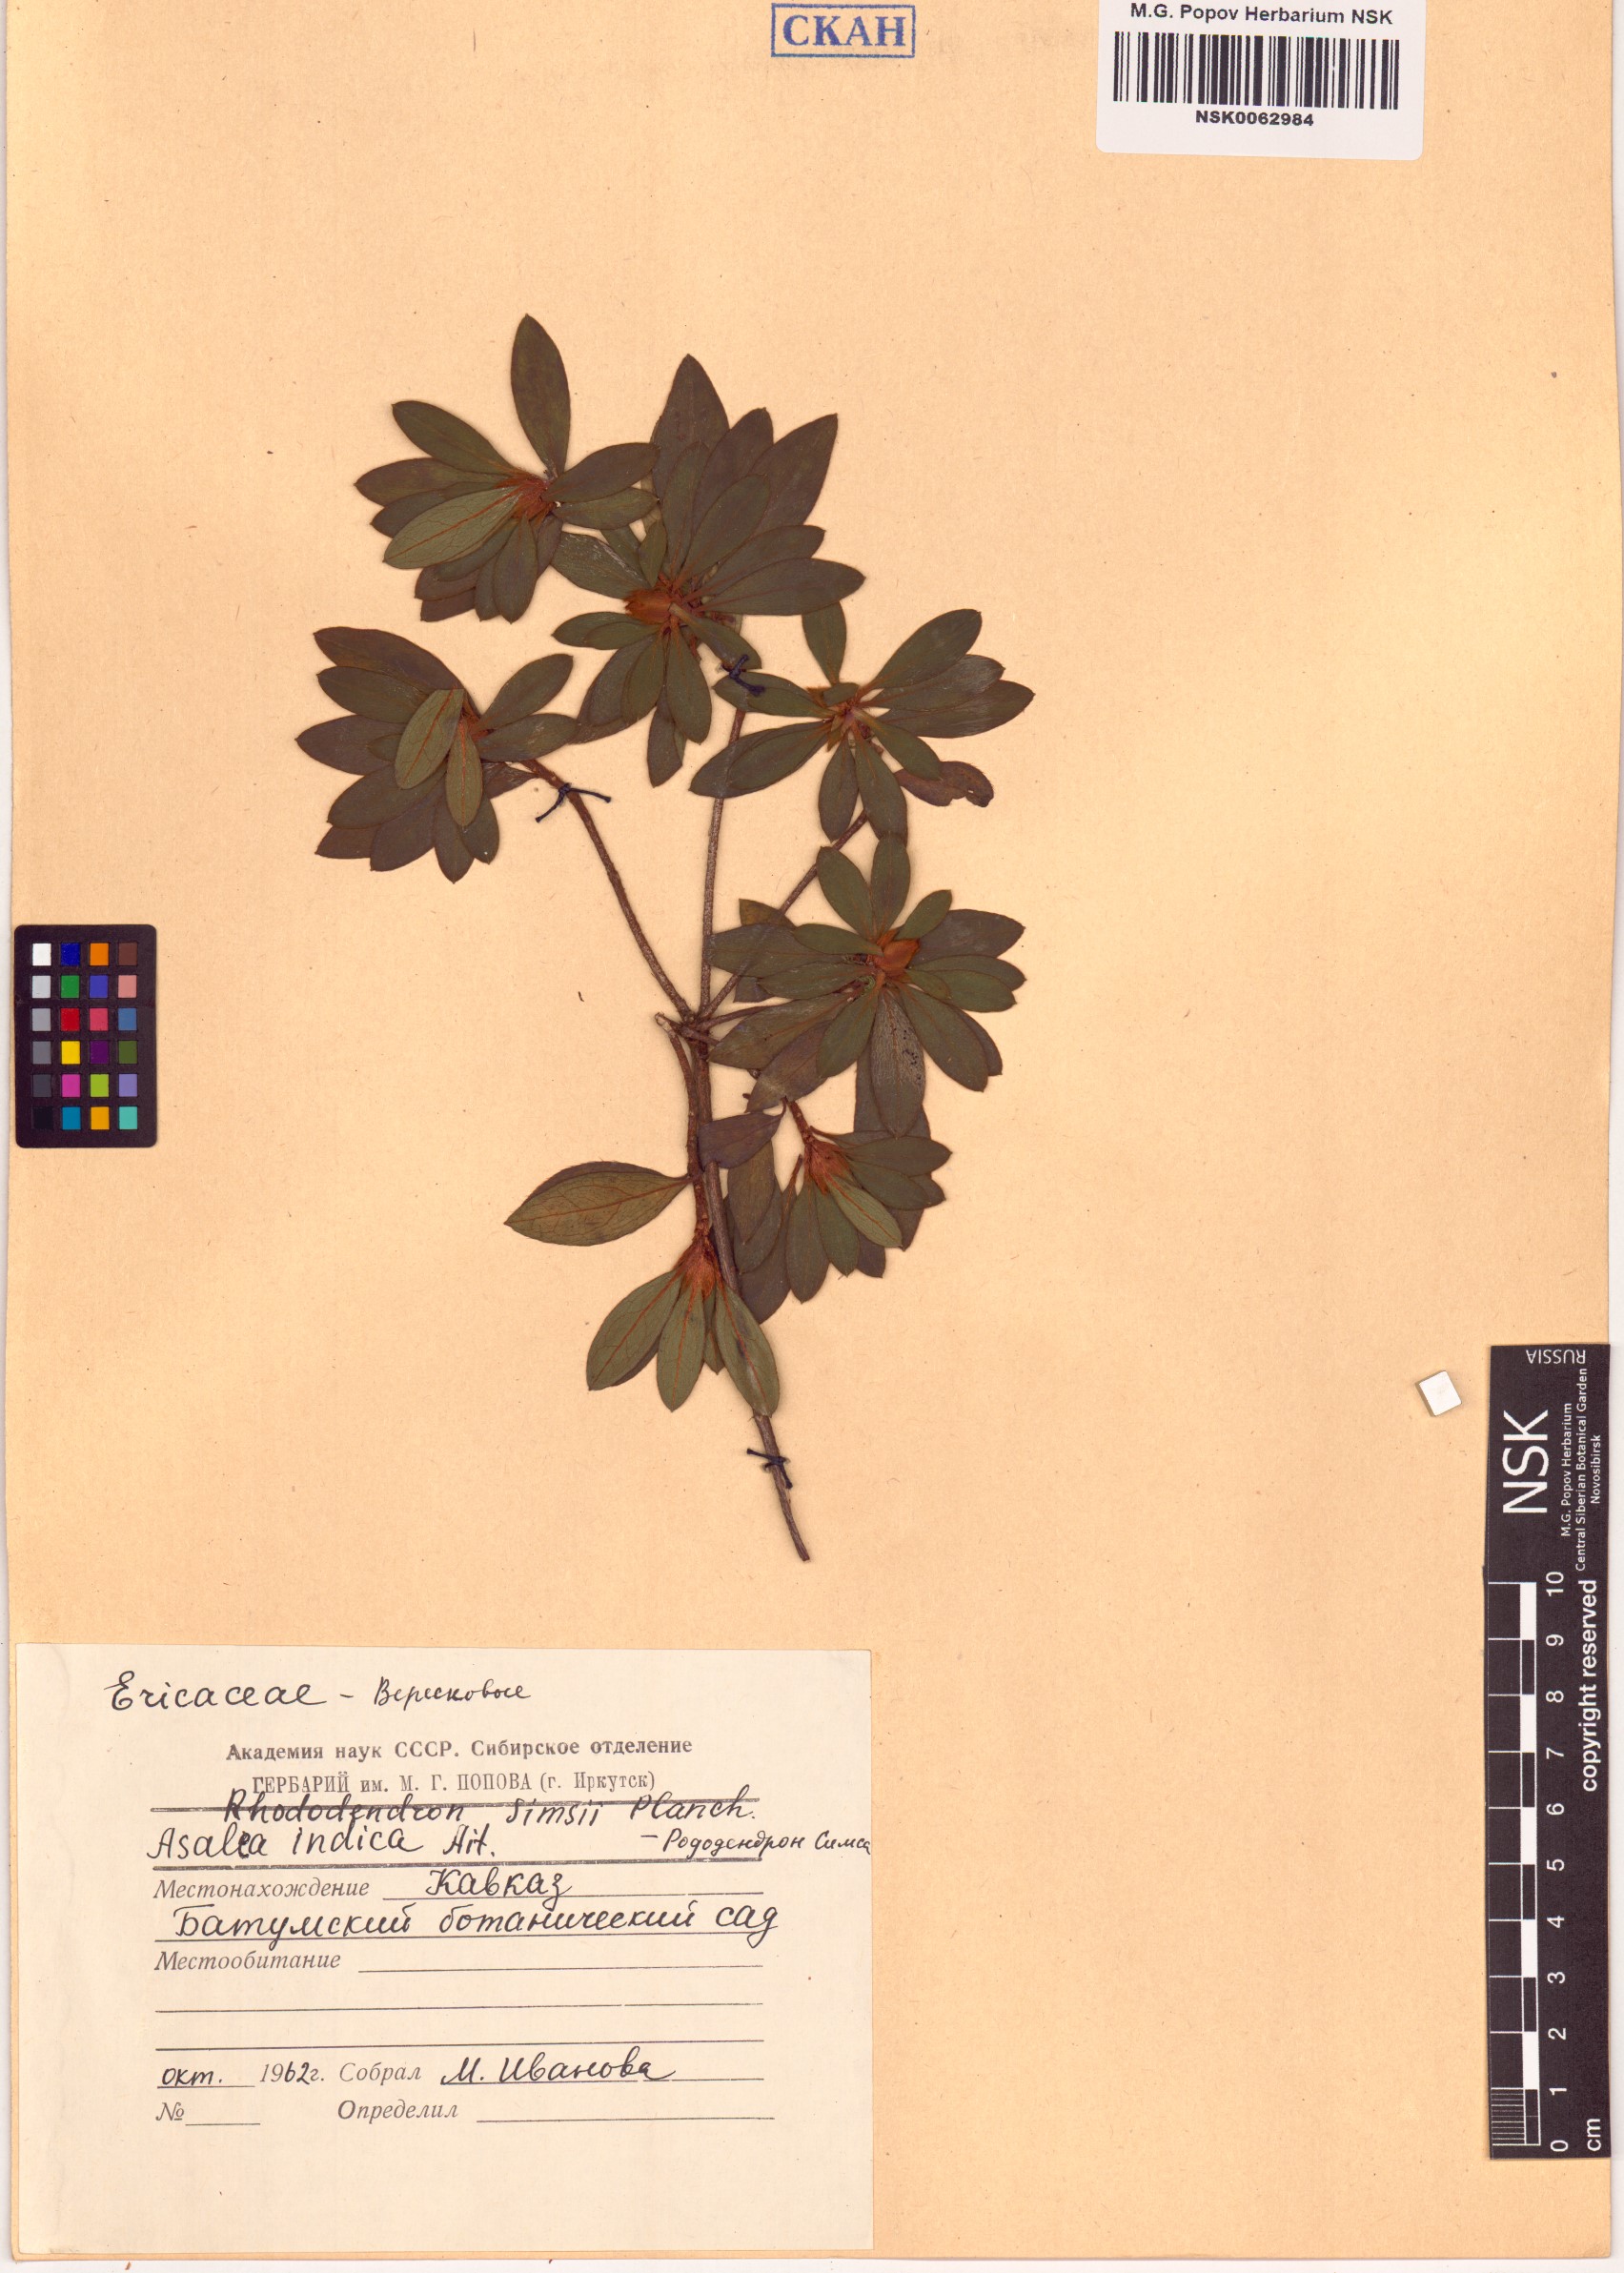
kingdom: Plantae
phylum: Tracheophyta
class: Magnoliopsida
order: Ericales
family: Ericaceae
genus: Rhododendron
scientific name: Rhododendron simsii
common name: Rhododendron
